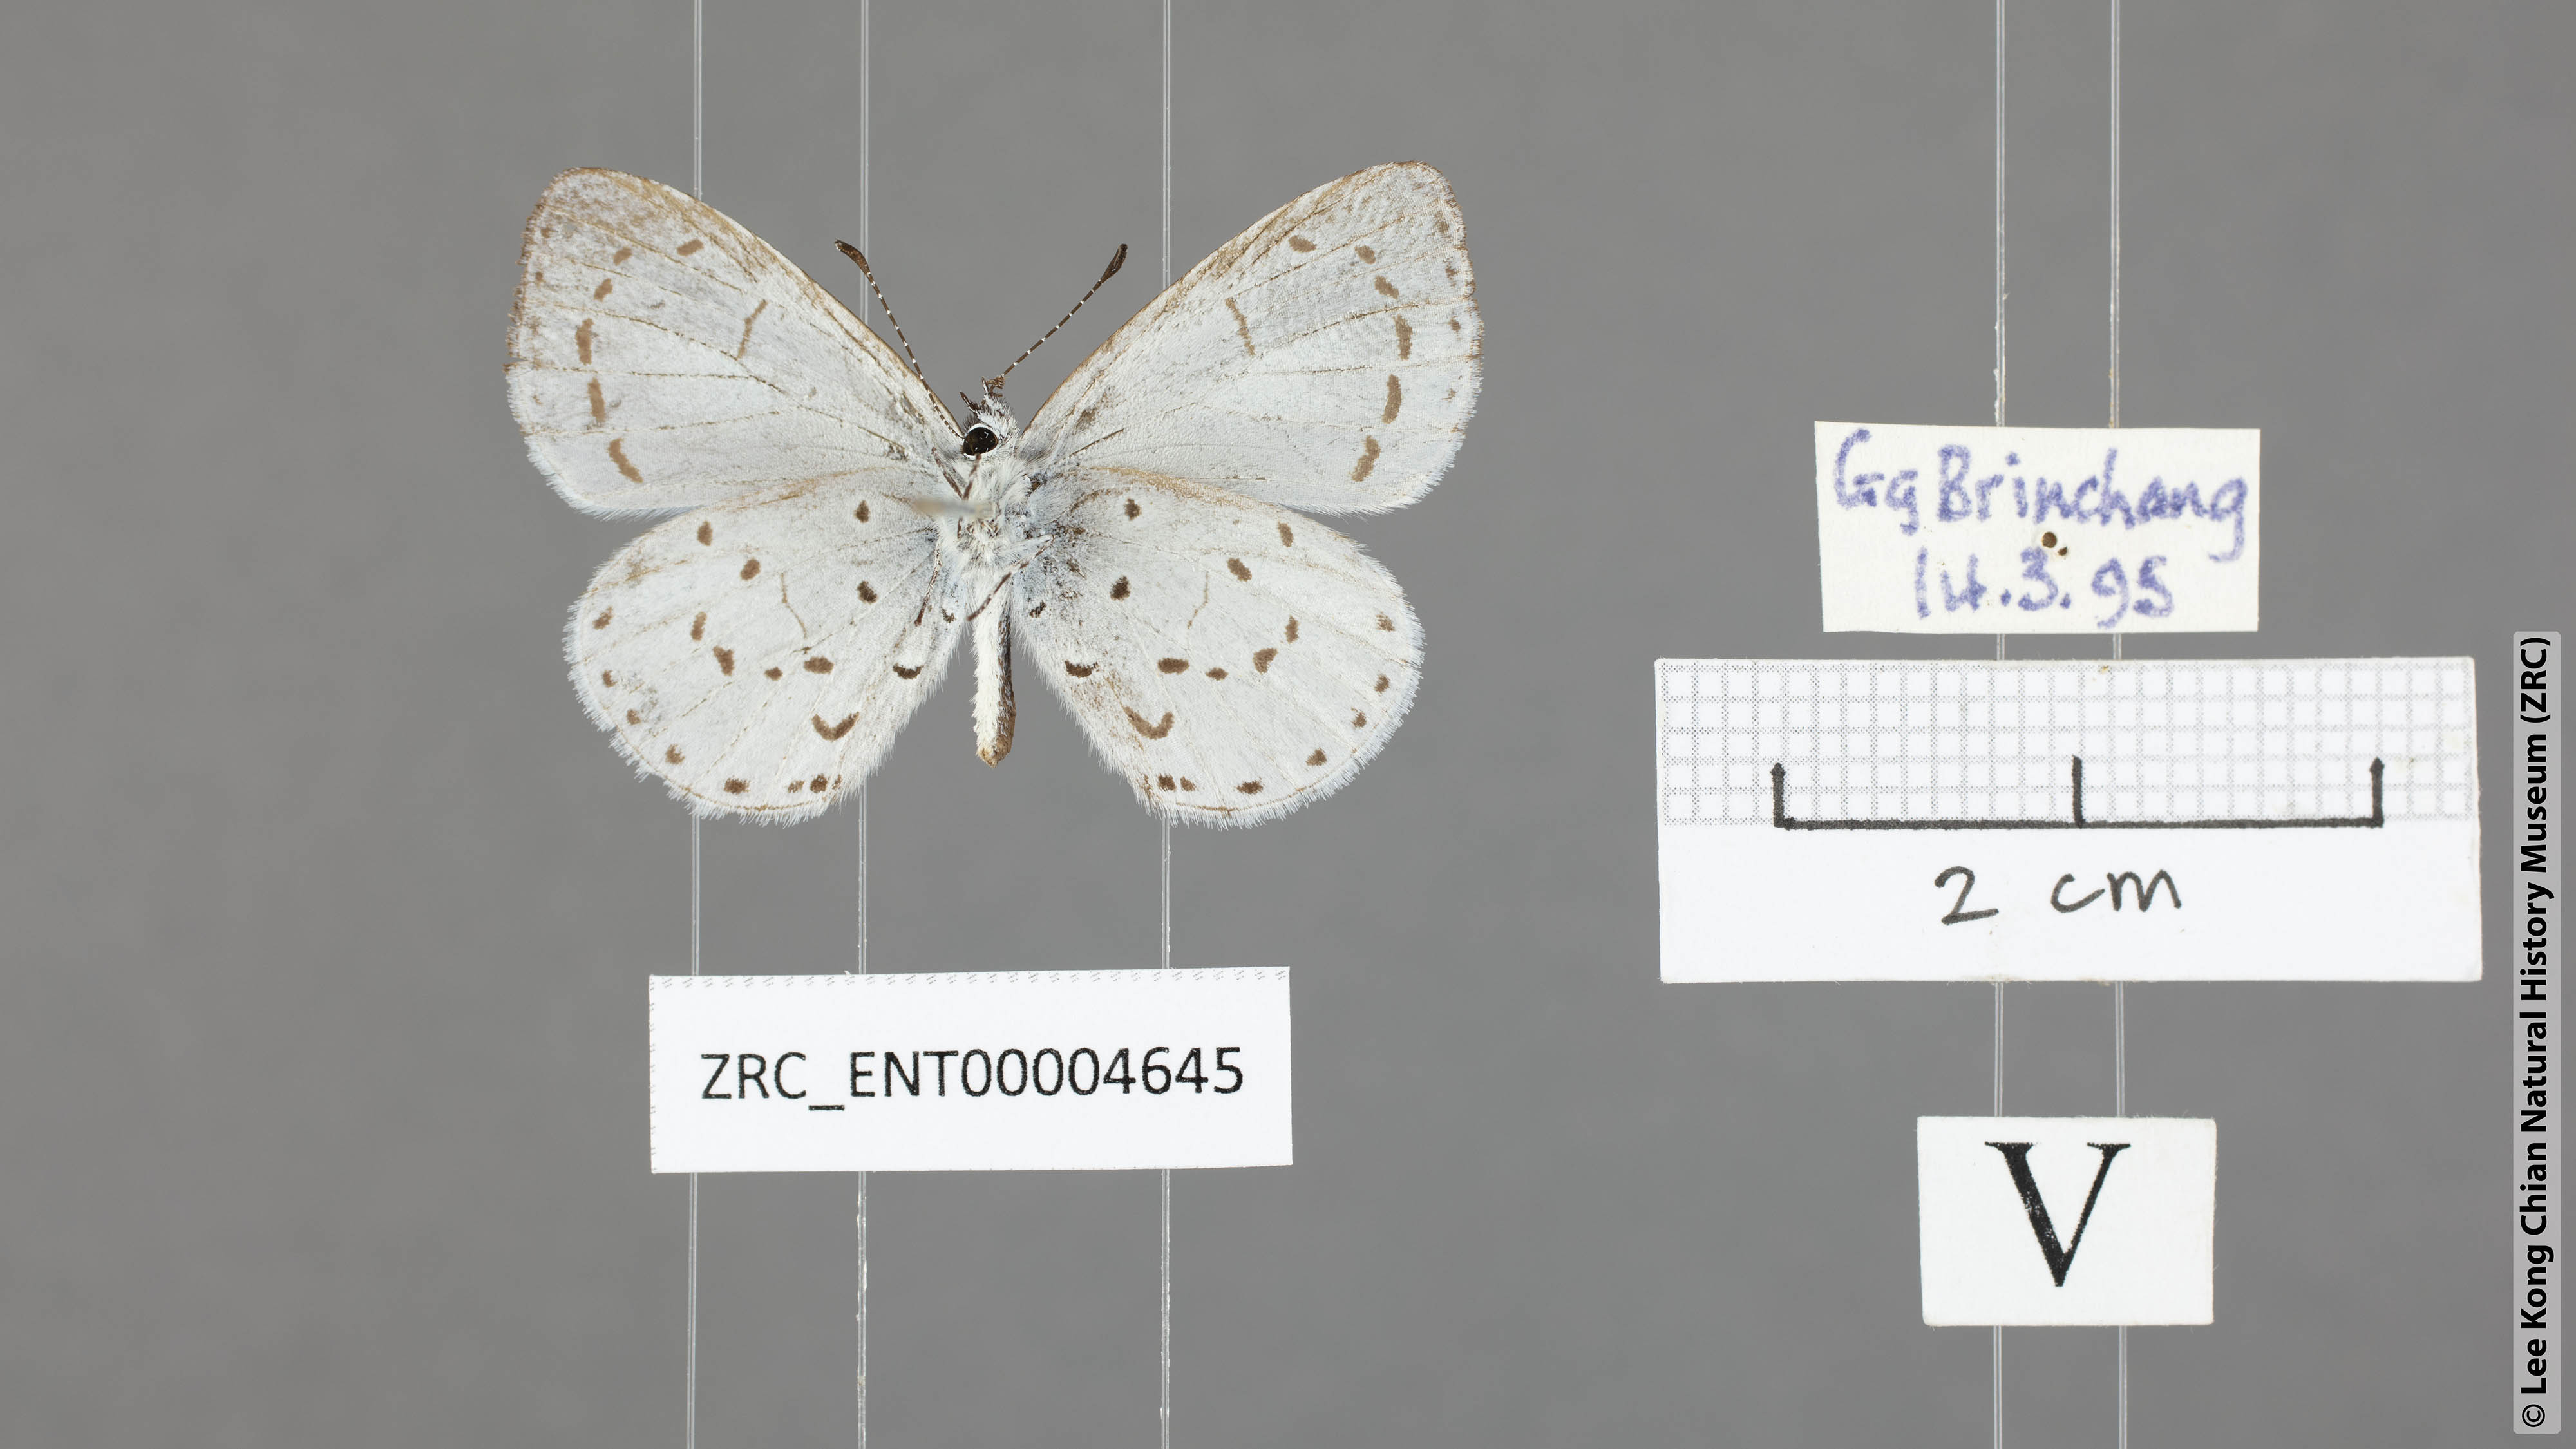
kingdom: Animalia
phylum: Arthropoda
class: Insecta
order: Lepidoptera
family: Lycaenidae
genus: Udara
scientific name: Udara toxopeusi
